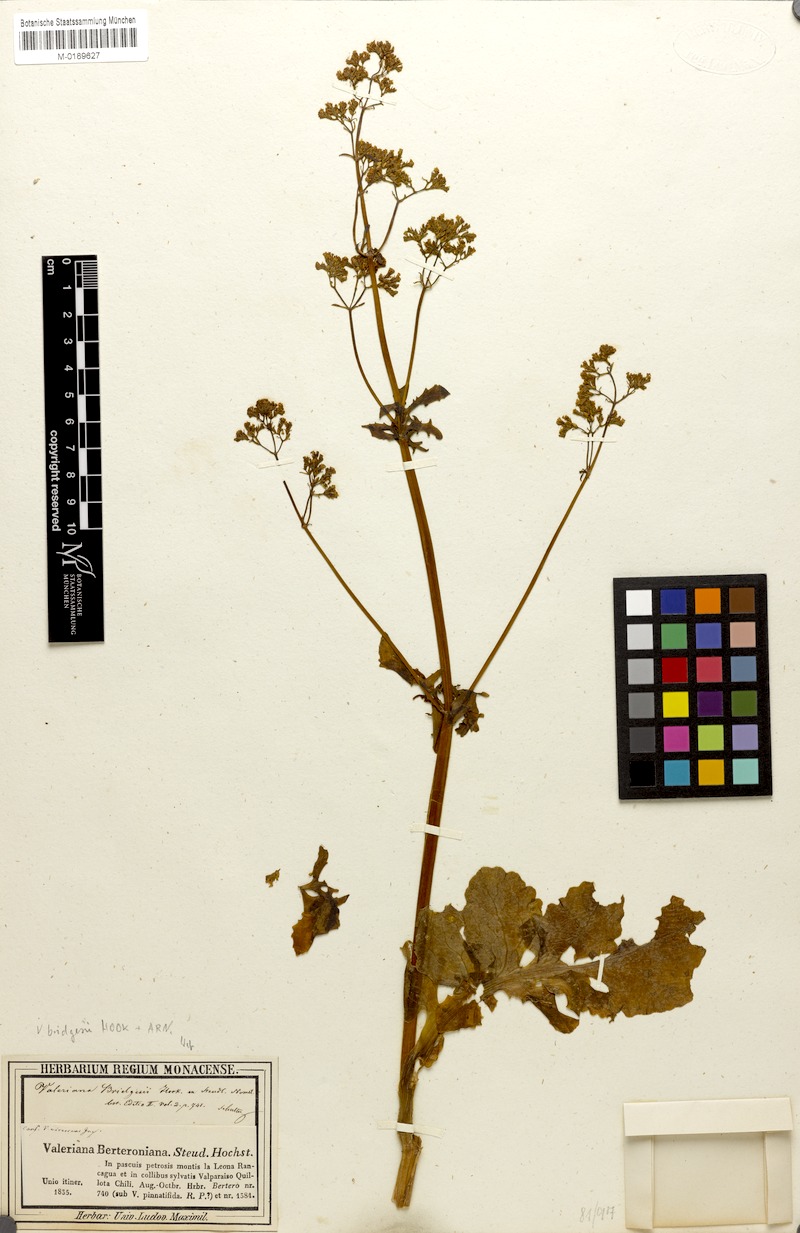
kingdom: Plantae
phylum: Tracheophyta
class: Magnoliopsida
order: Dipsacales
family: Caprifoliaceae
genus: Valeriana
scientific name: Valeriana bridgesii
